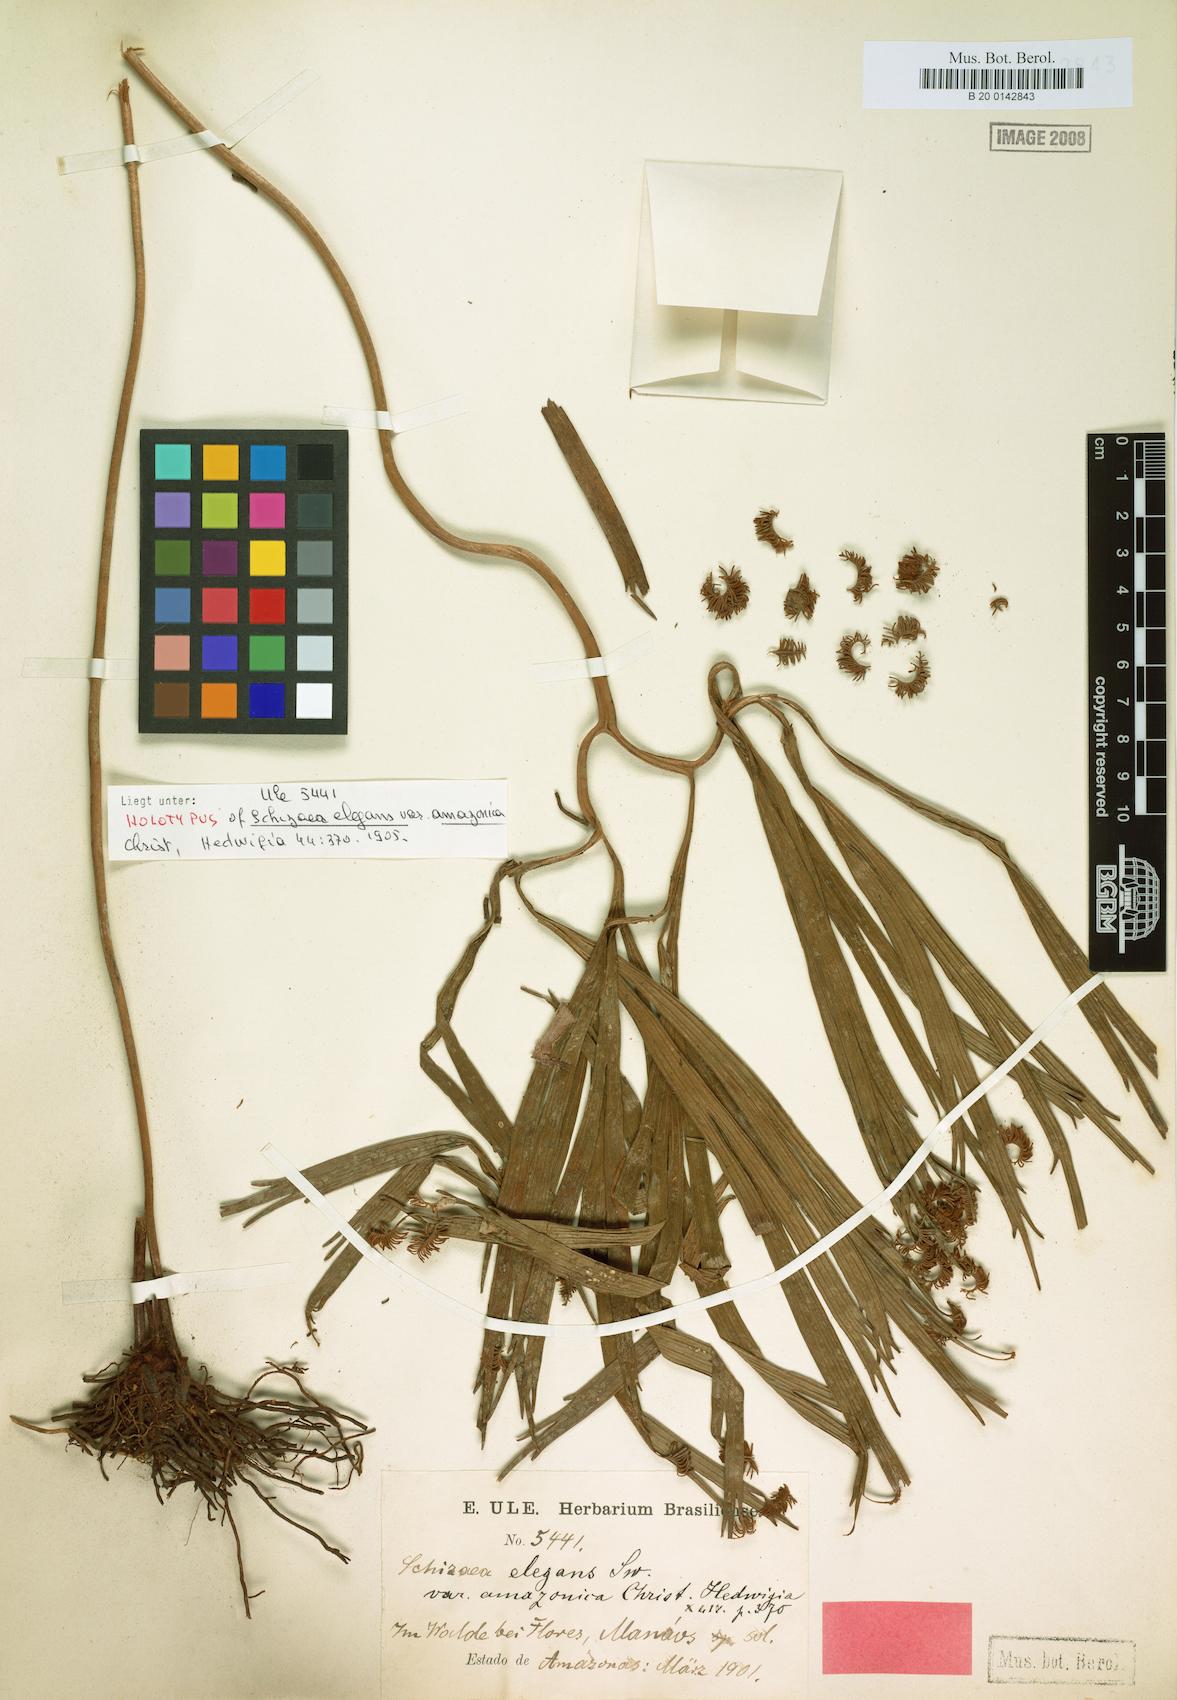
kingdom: Plantae
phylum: Tracheophyta
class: Polypodiopsida
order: Schizaeales
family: Schizaeaceae
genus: Schizaea
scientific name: Schizaea elegans
